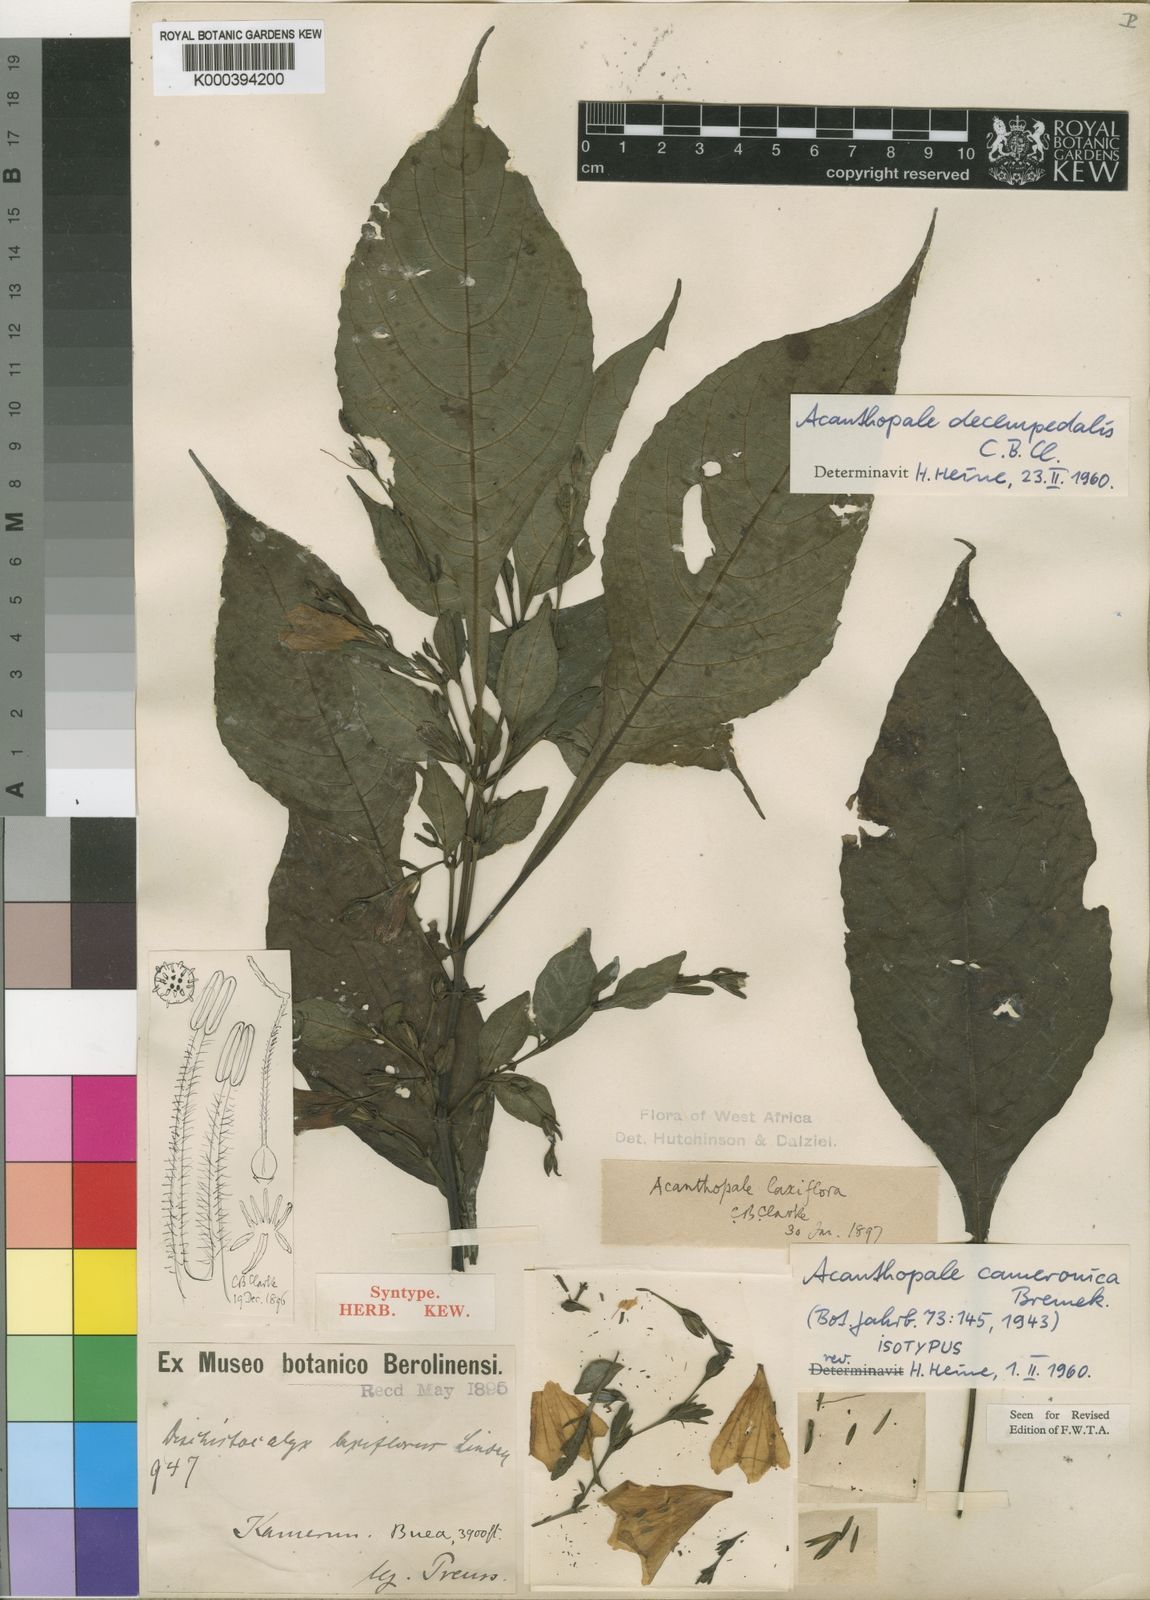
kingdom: Plantae
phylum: Tracheophyta
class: Magnoliopsida
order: Lamiales
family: Acanthaceae
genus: Acanthopale
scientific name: Acanthopale decempedalis
